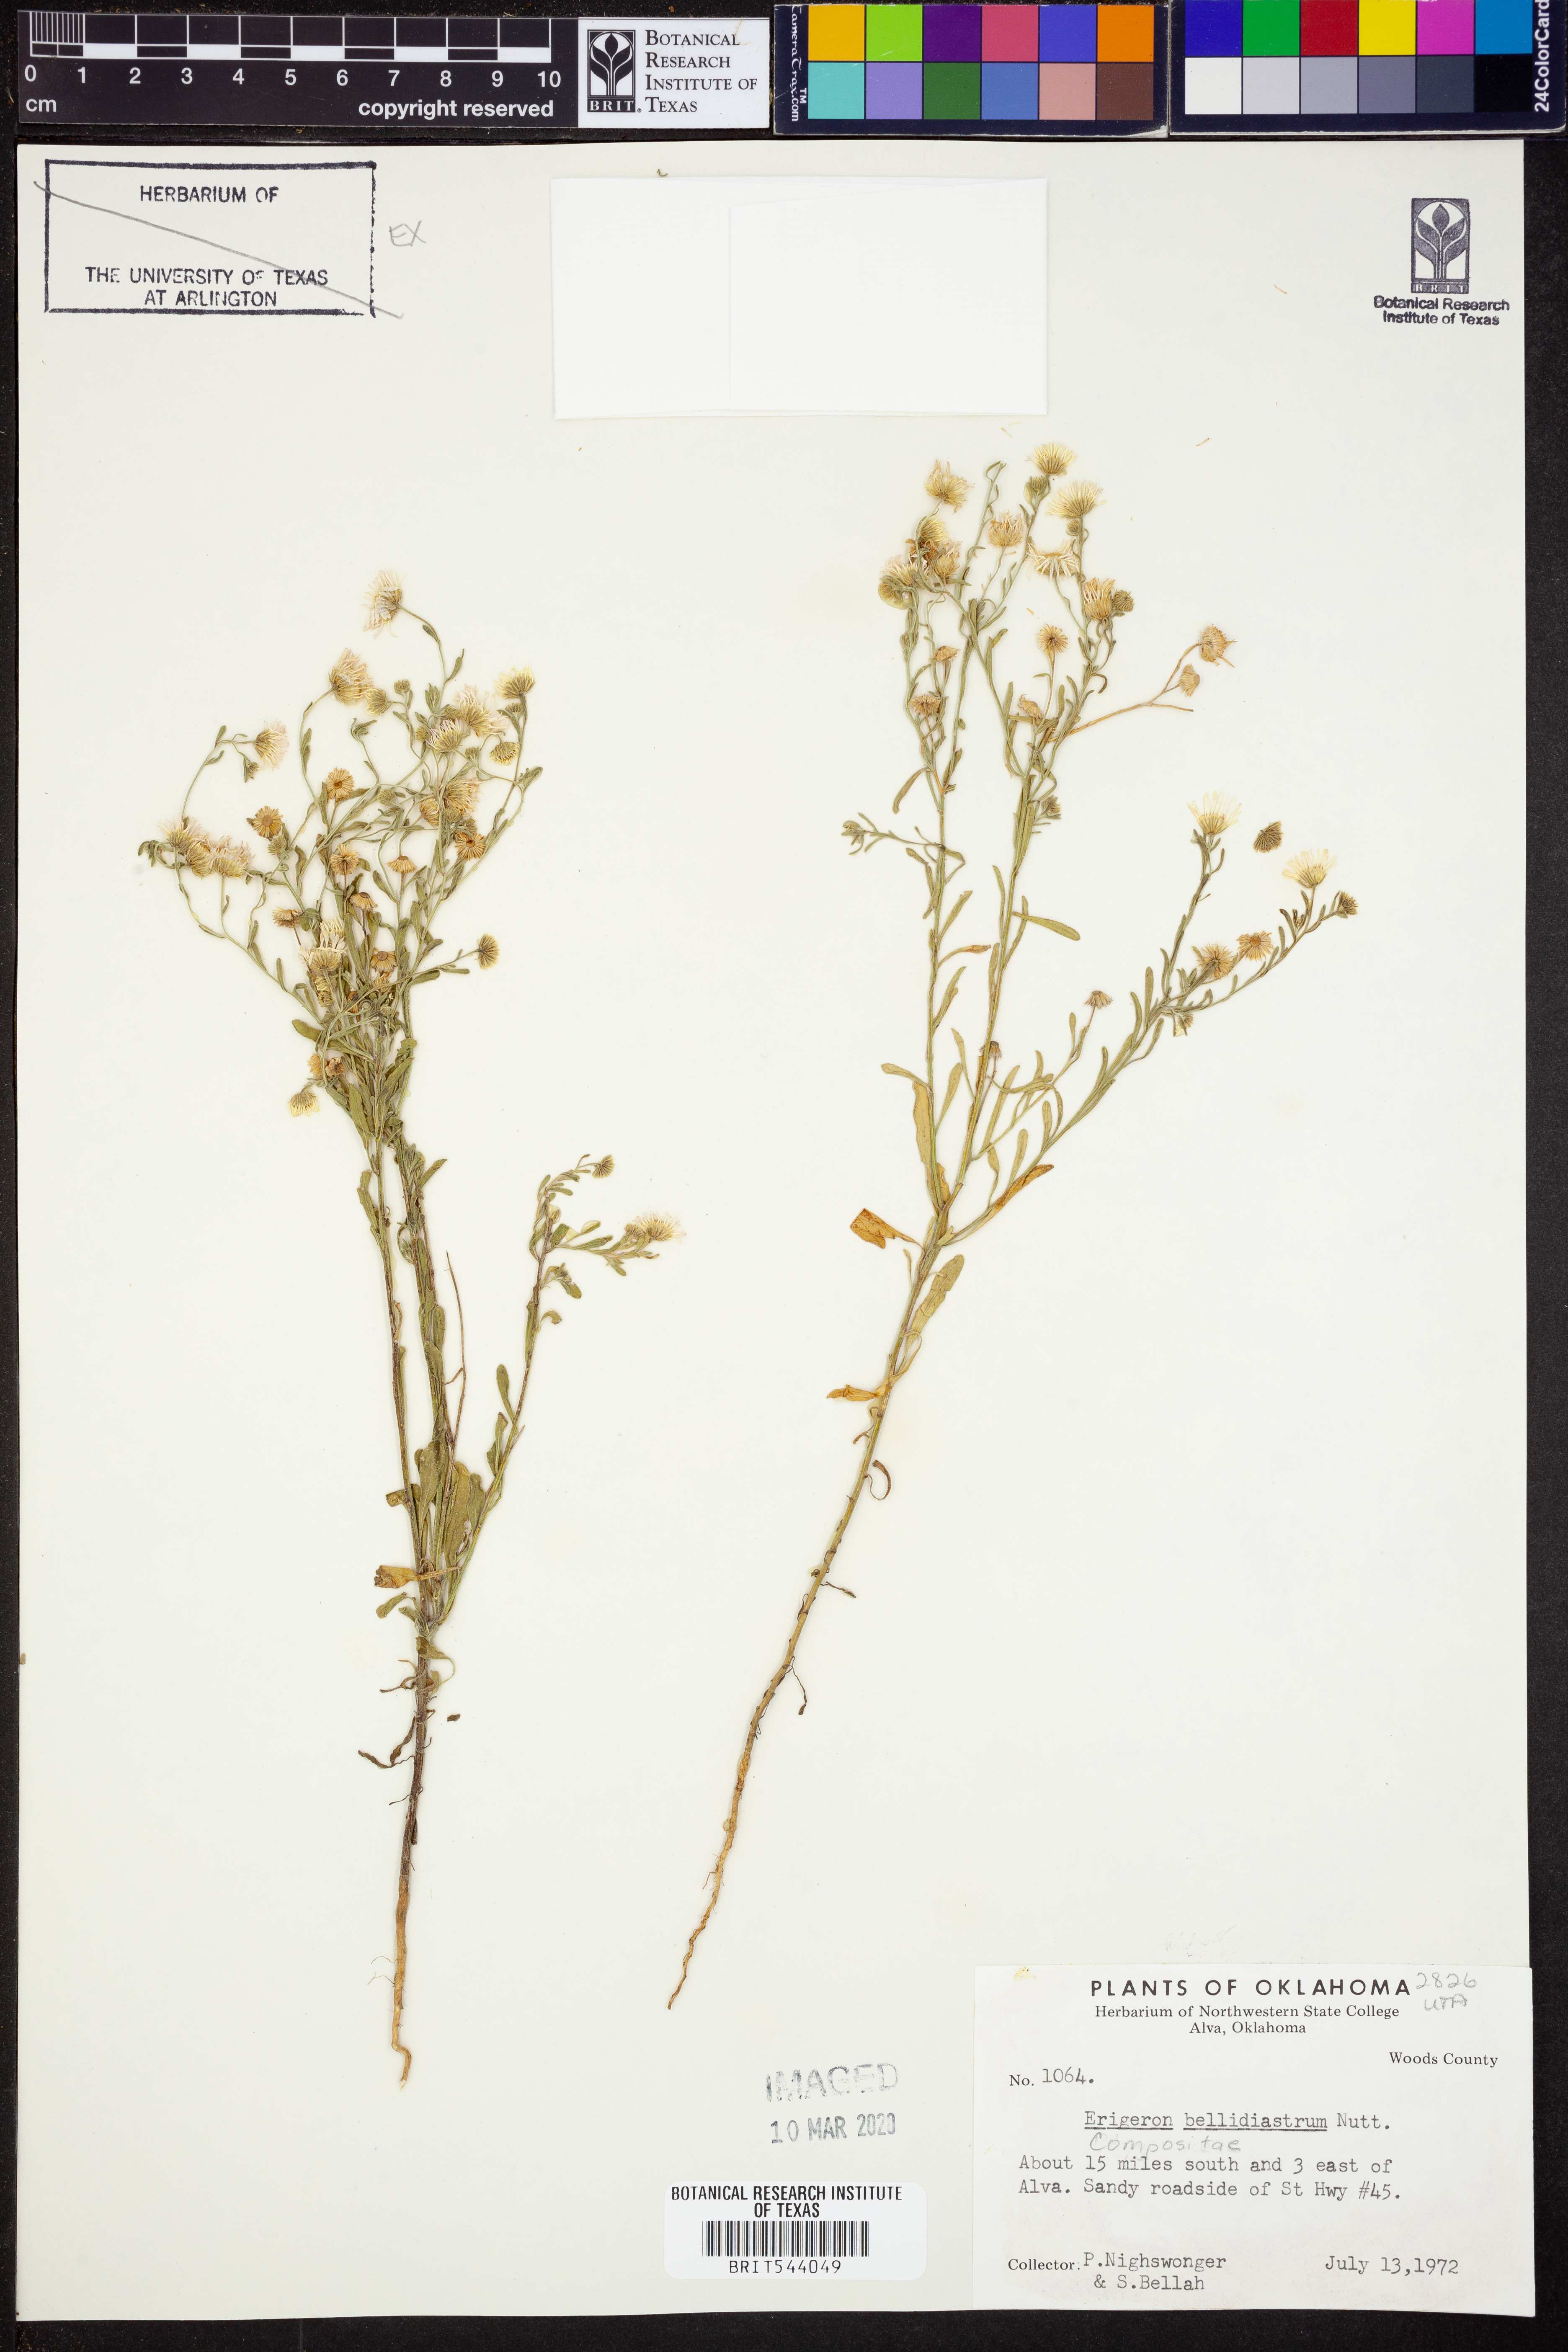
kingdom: Plantae
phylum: Tracheophyta
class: Magnoliopsida
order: Asterales
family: Asteraceae
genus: Erigeron
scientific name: Erigeron bellidiastrum
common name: Sand fleabane
